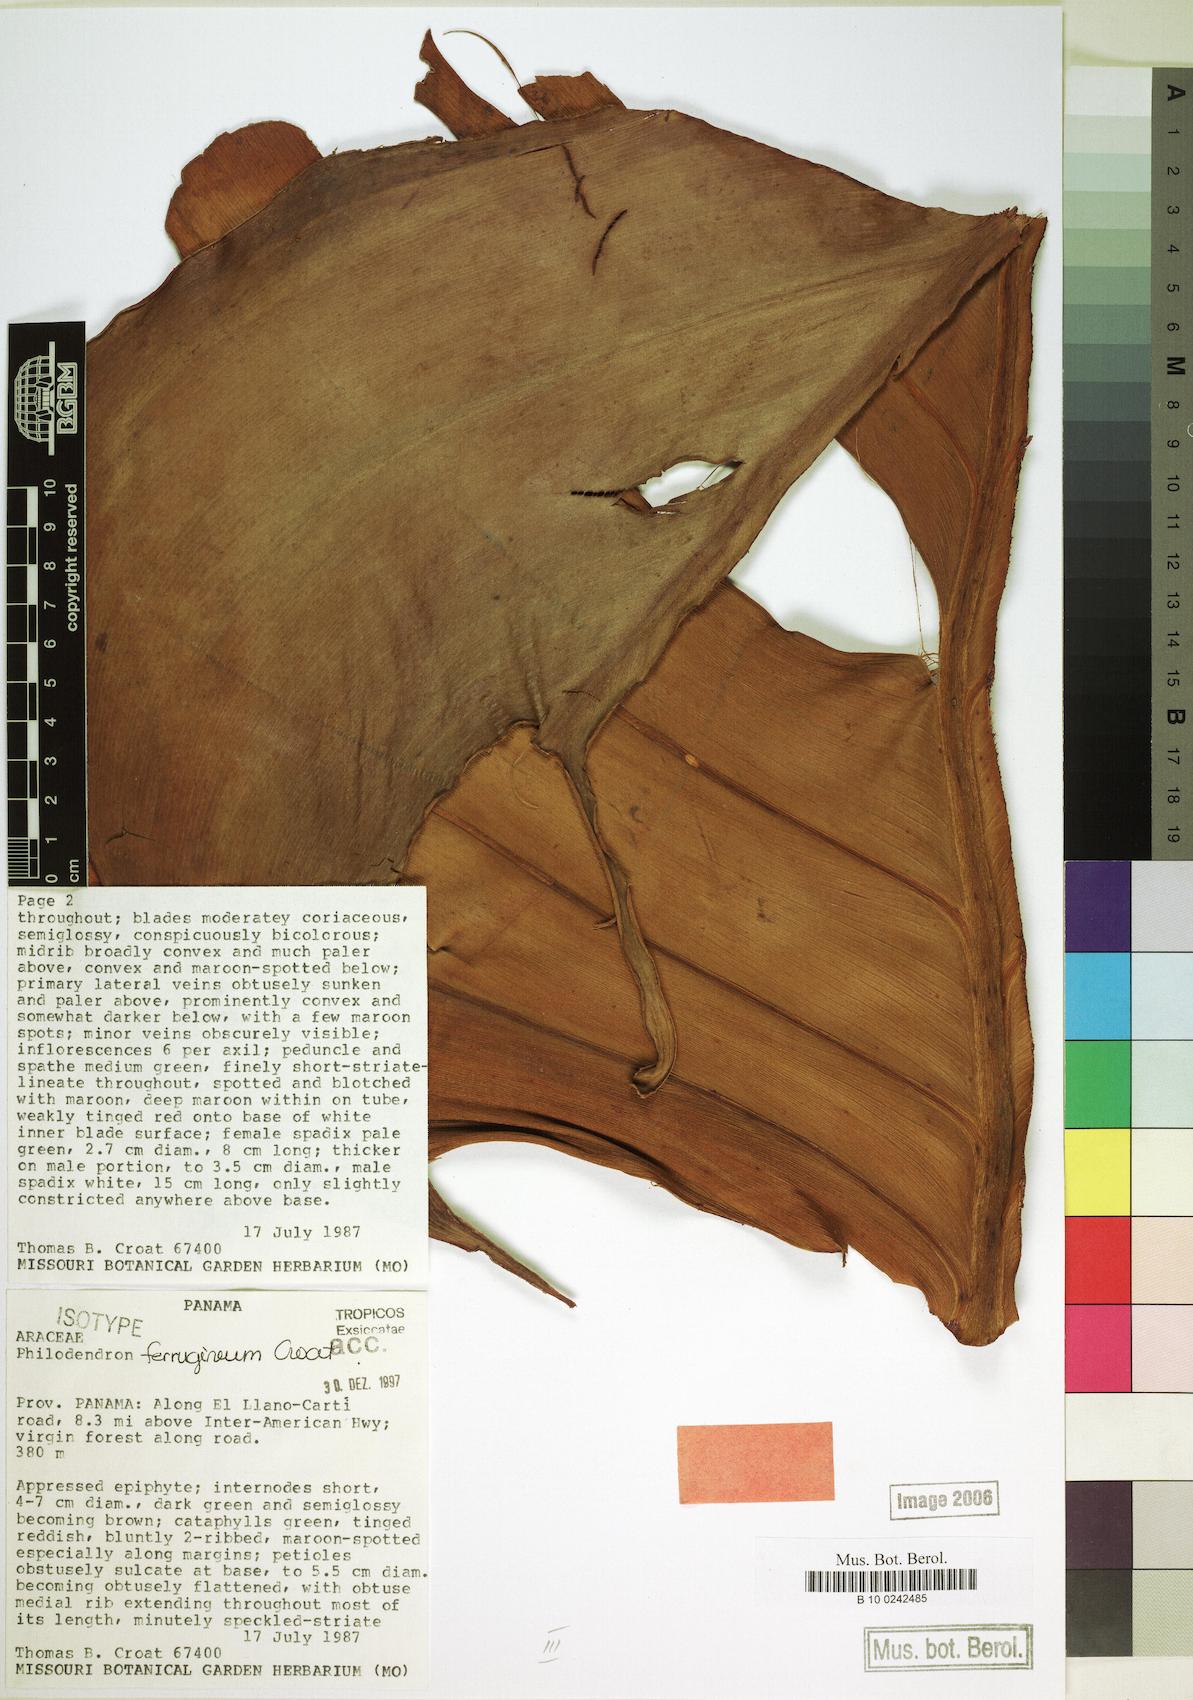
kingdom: Plantae
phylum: Tracheophyta
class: Liliopsida
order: Alismatales
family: Araceae
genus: Philodendron
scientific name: Philodendron ferrugineum
